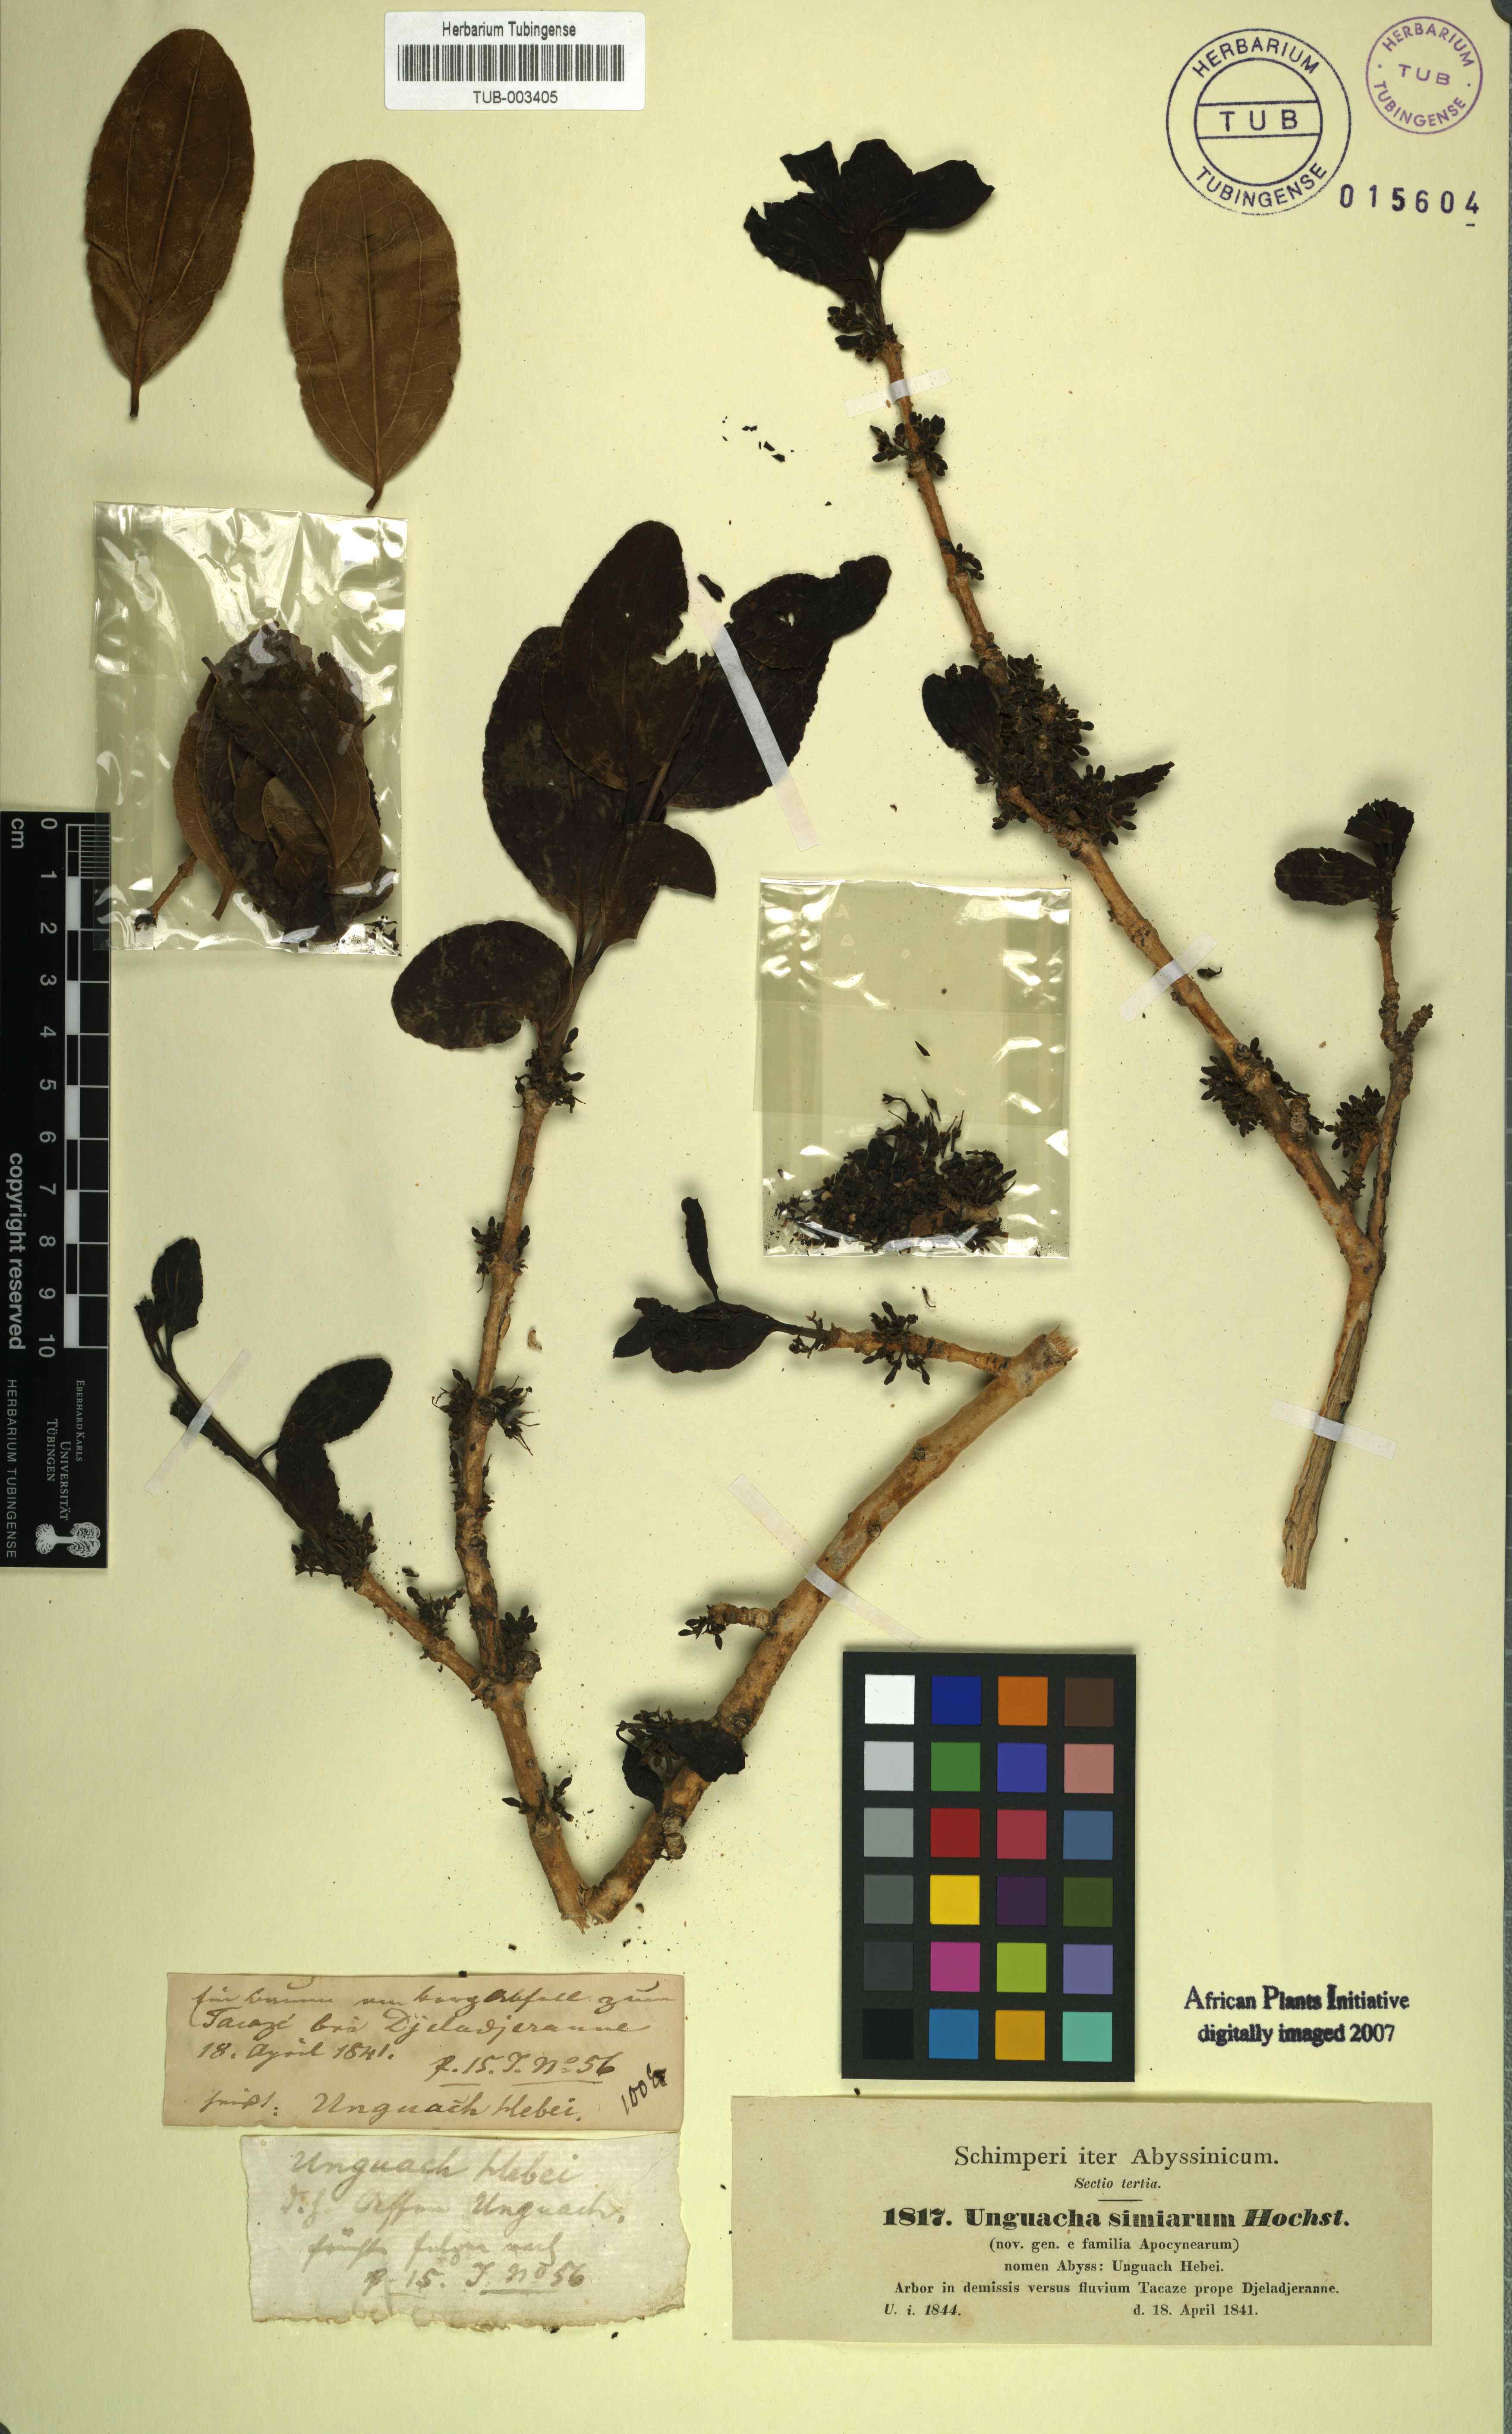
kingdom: Plantae
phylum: Tracheophyta
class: Magnoliopsida
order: Gentianales
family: Loganiaceae
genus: Strychnos
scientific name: Strychnos innocua
